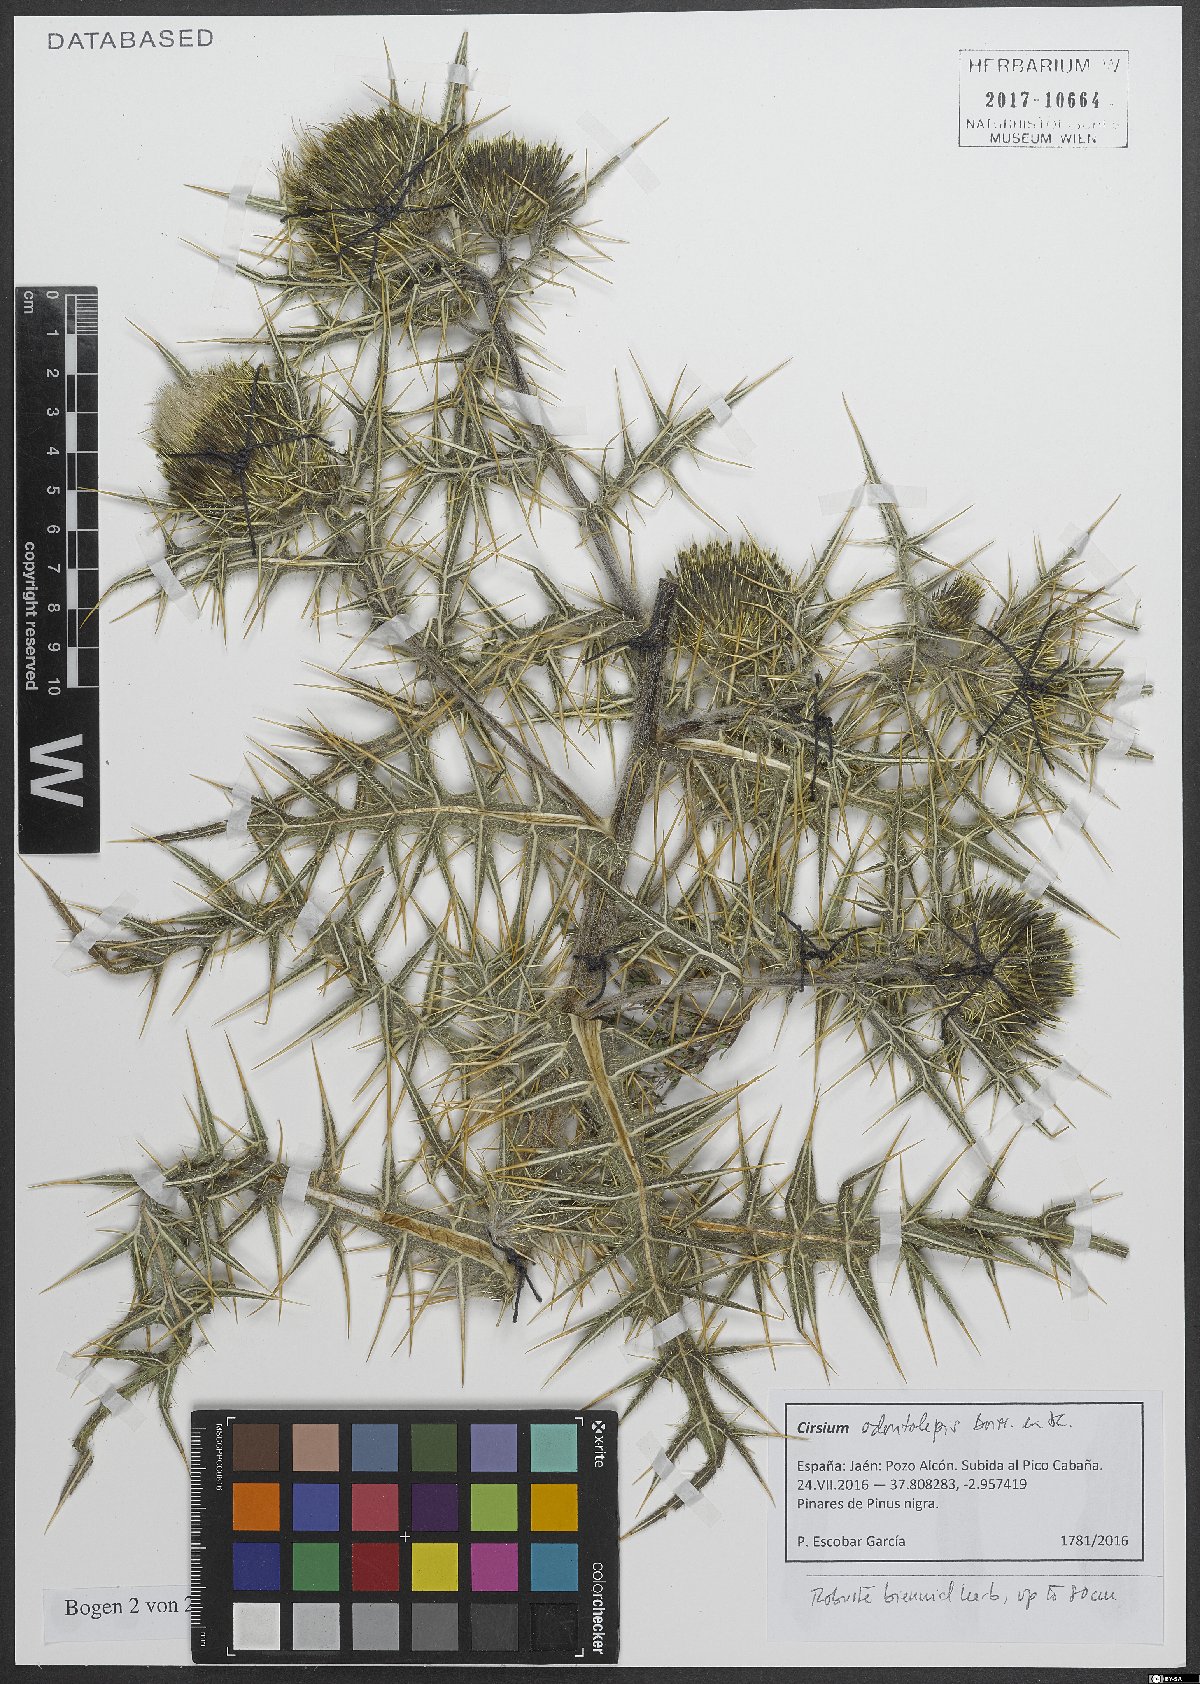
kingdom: Plantae
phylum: Tracheophyta
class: Magnoliopsida
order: Asterales
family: Asteraceae
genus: Lophiolepis
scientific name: Lophiolepis odontolepis
